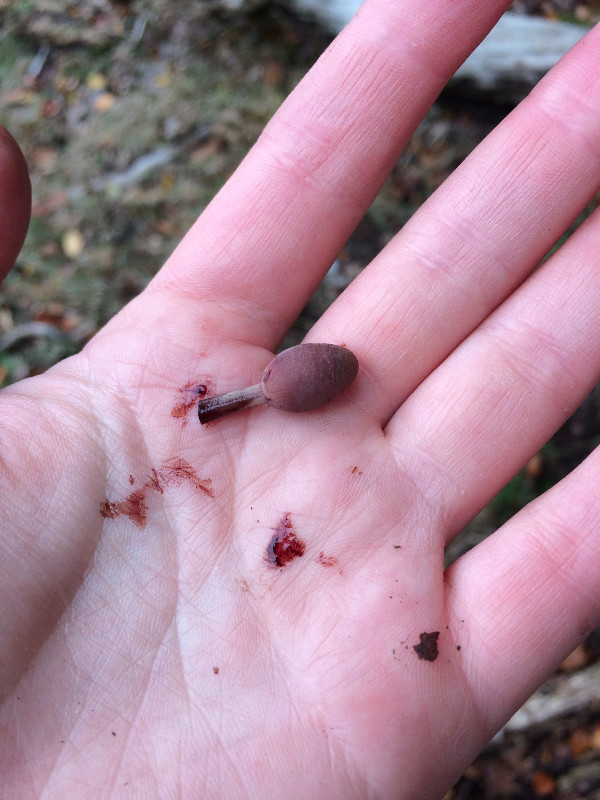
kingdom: Fungi
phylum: Basidiomycota
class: Agaricomycetes
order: Agaricales
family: Mycenaceae
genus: Mycena
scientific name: Mycena haematopus
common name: blødende huesvamp
